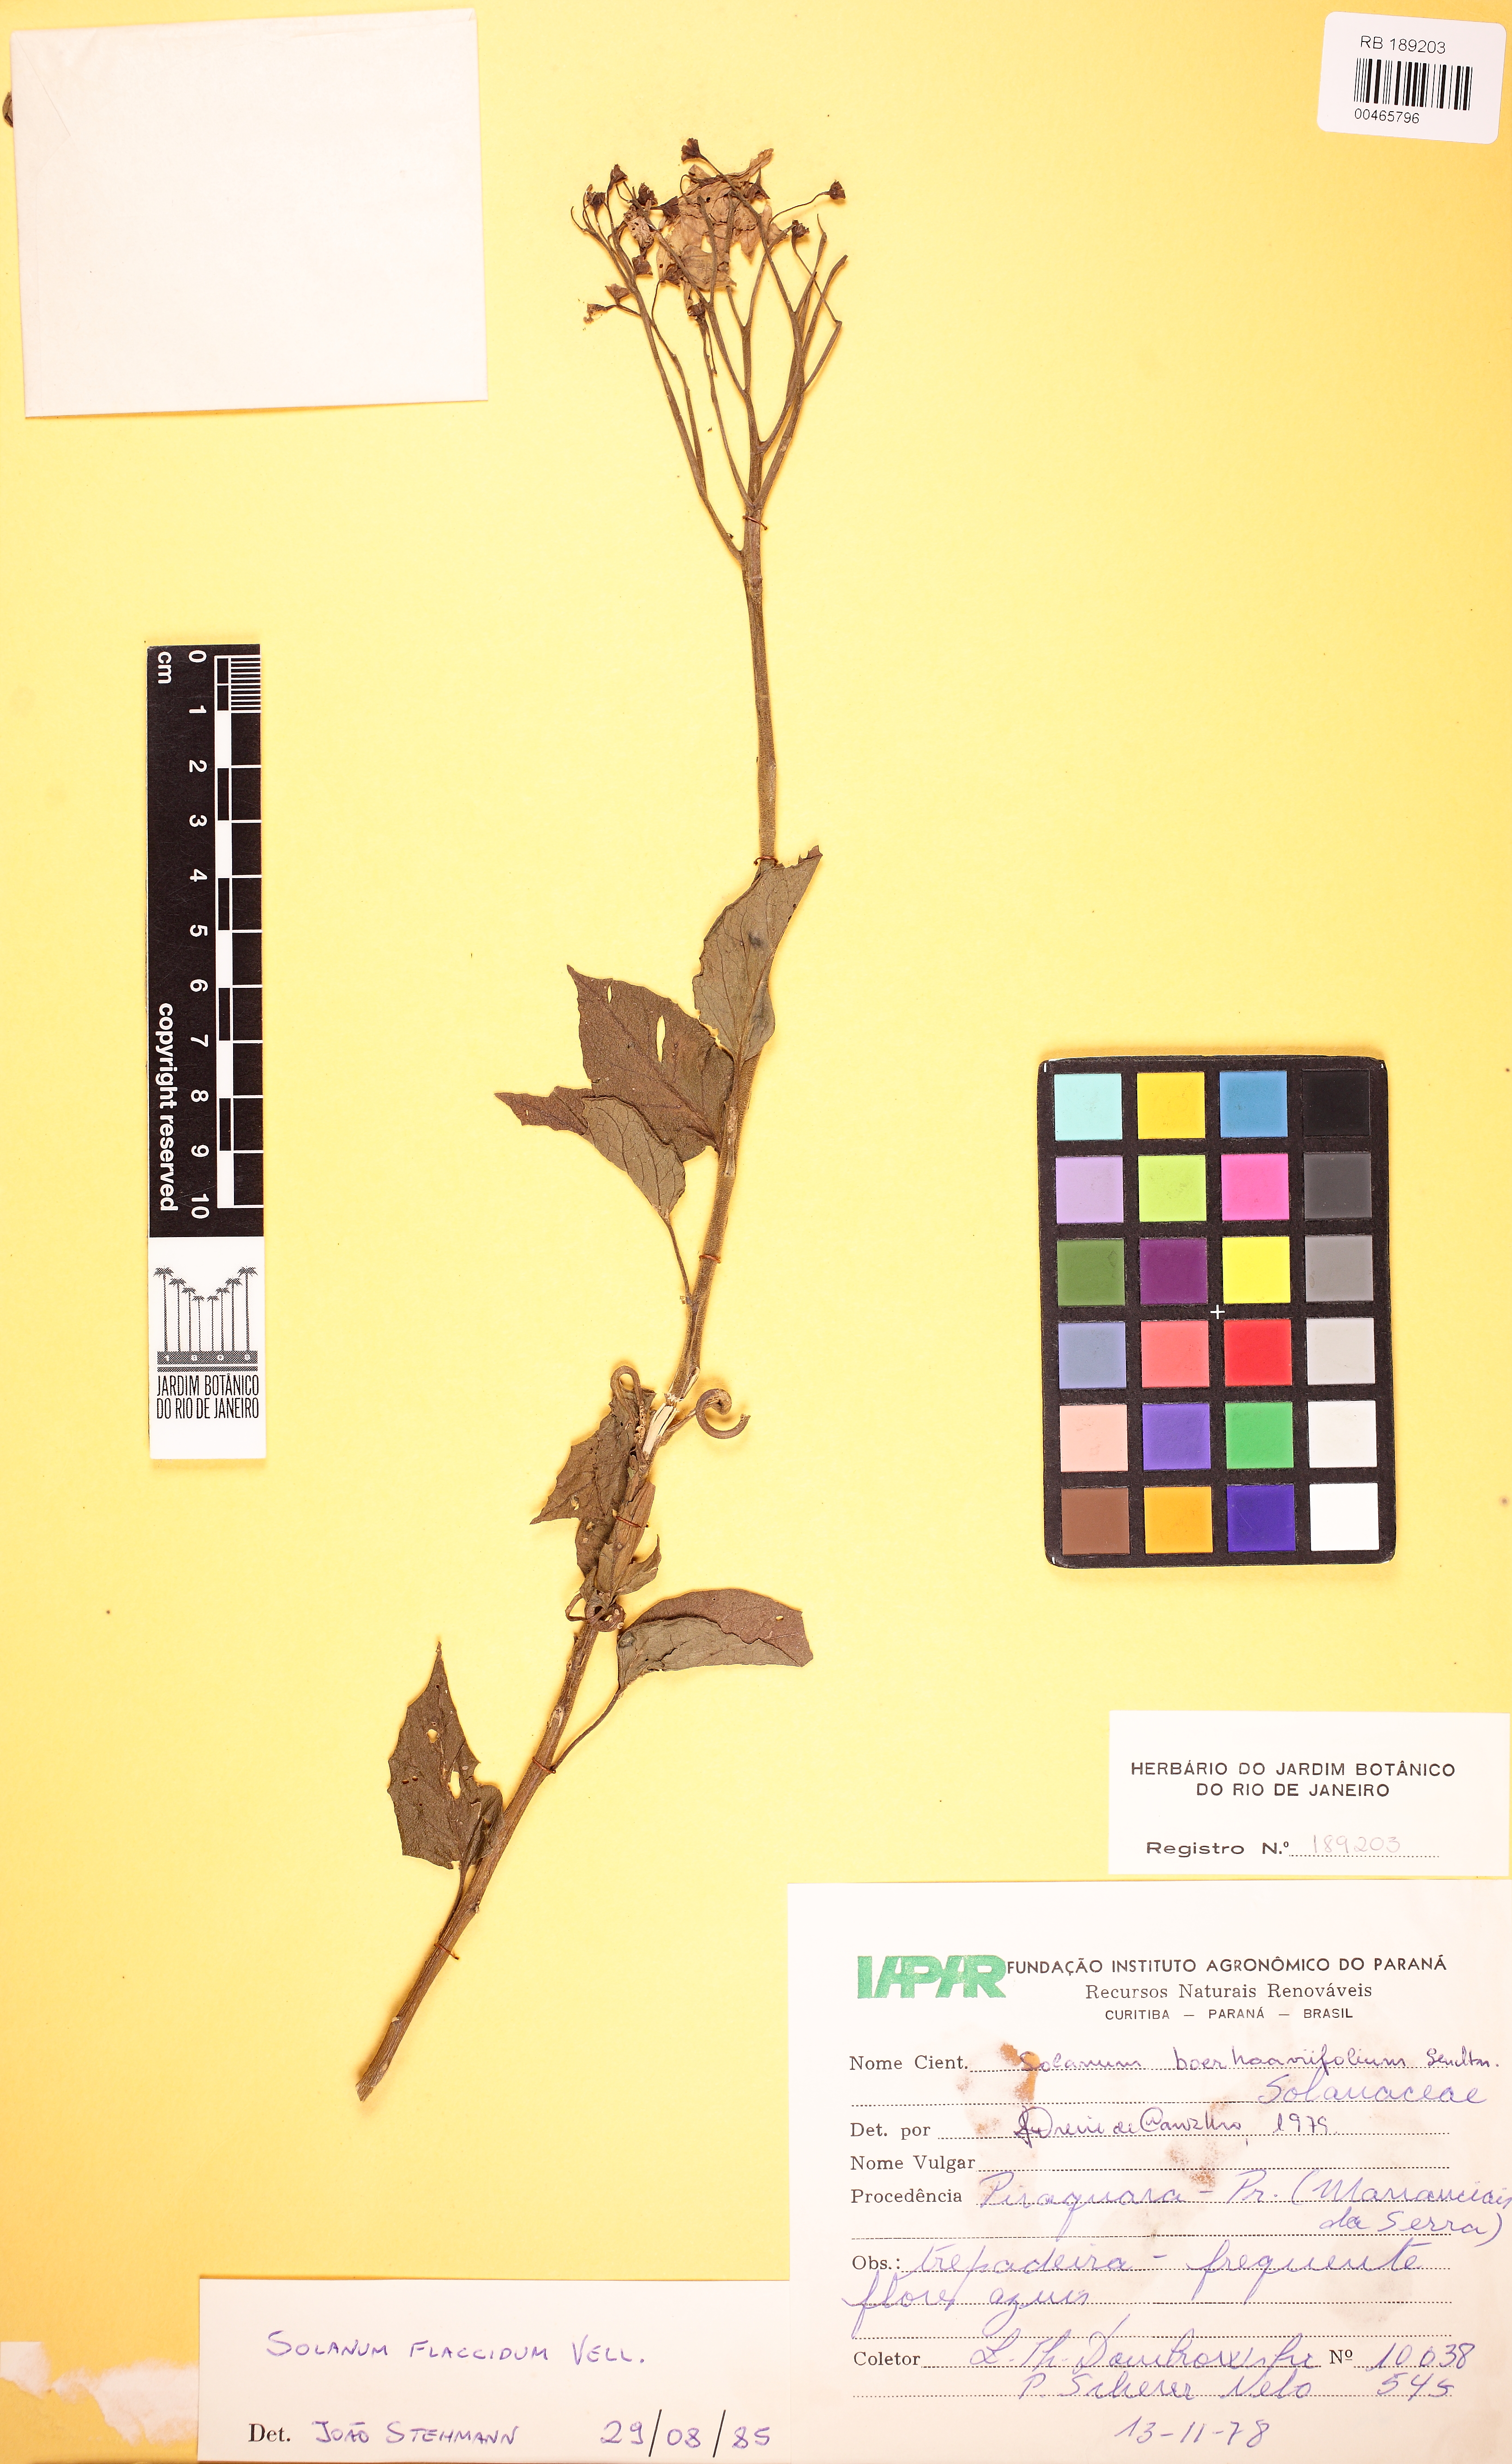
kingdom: Plantae
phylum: Tracheophyta
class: Magnoliopsida
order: Solanales
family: Solanaceae
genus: Solanum
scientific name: Solanum flaccidum
